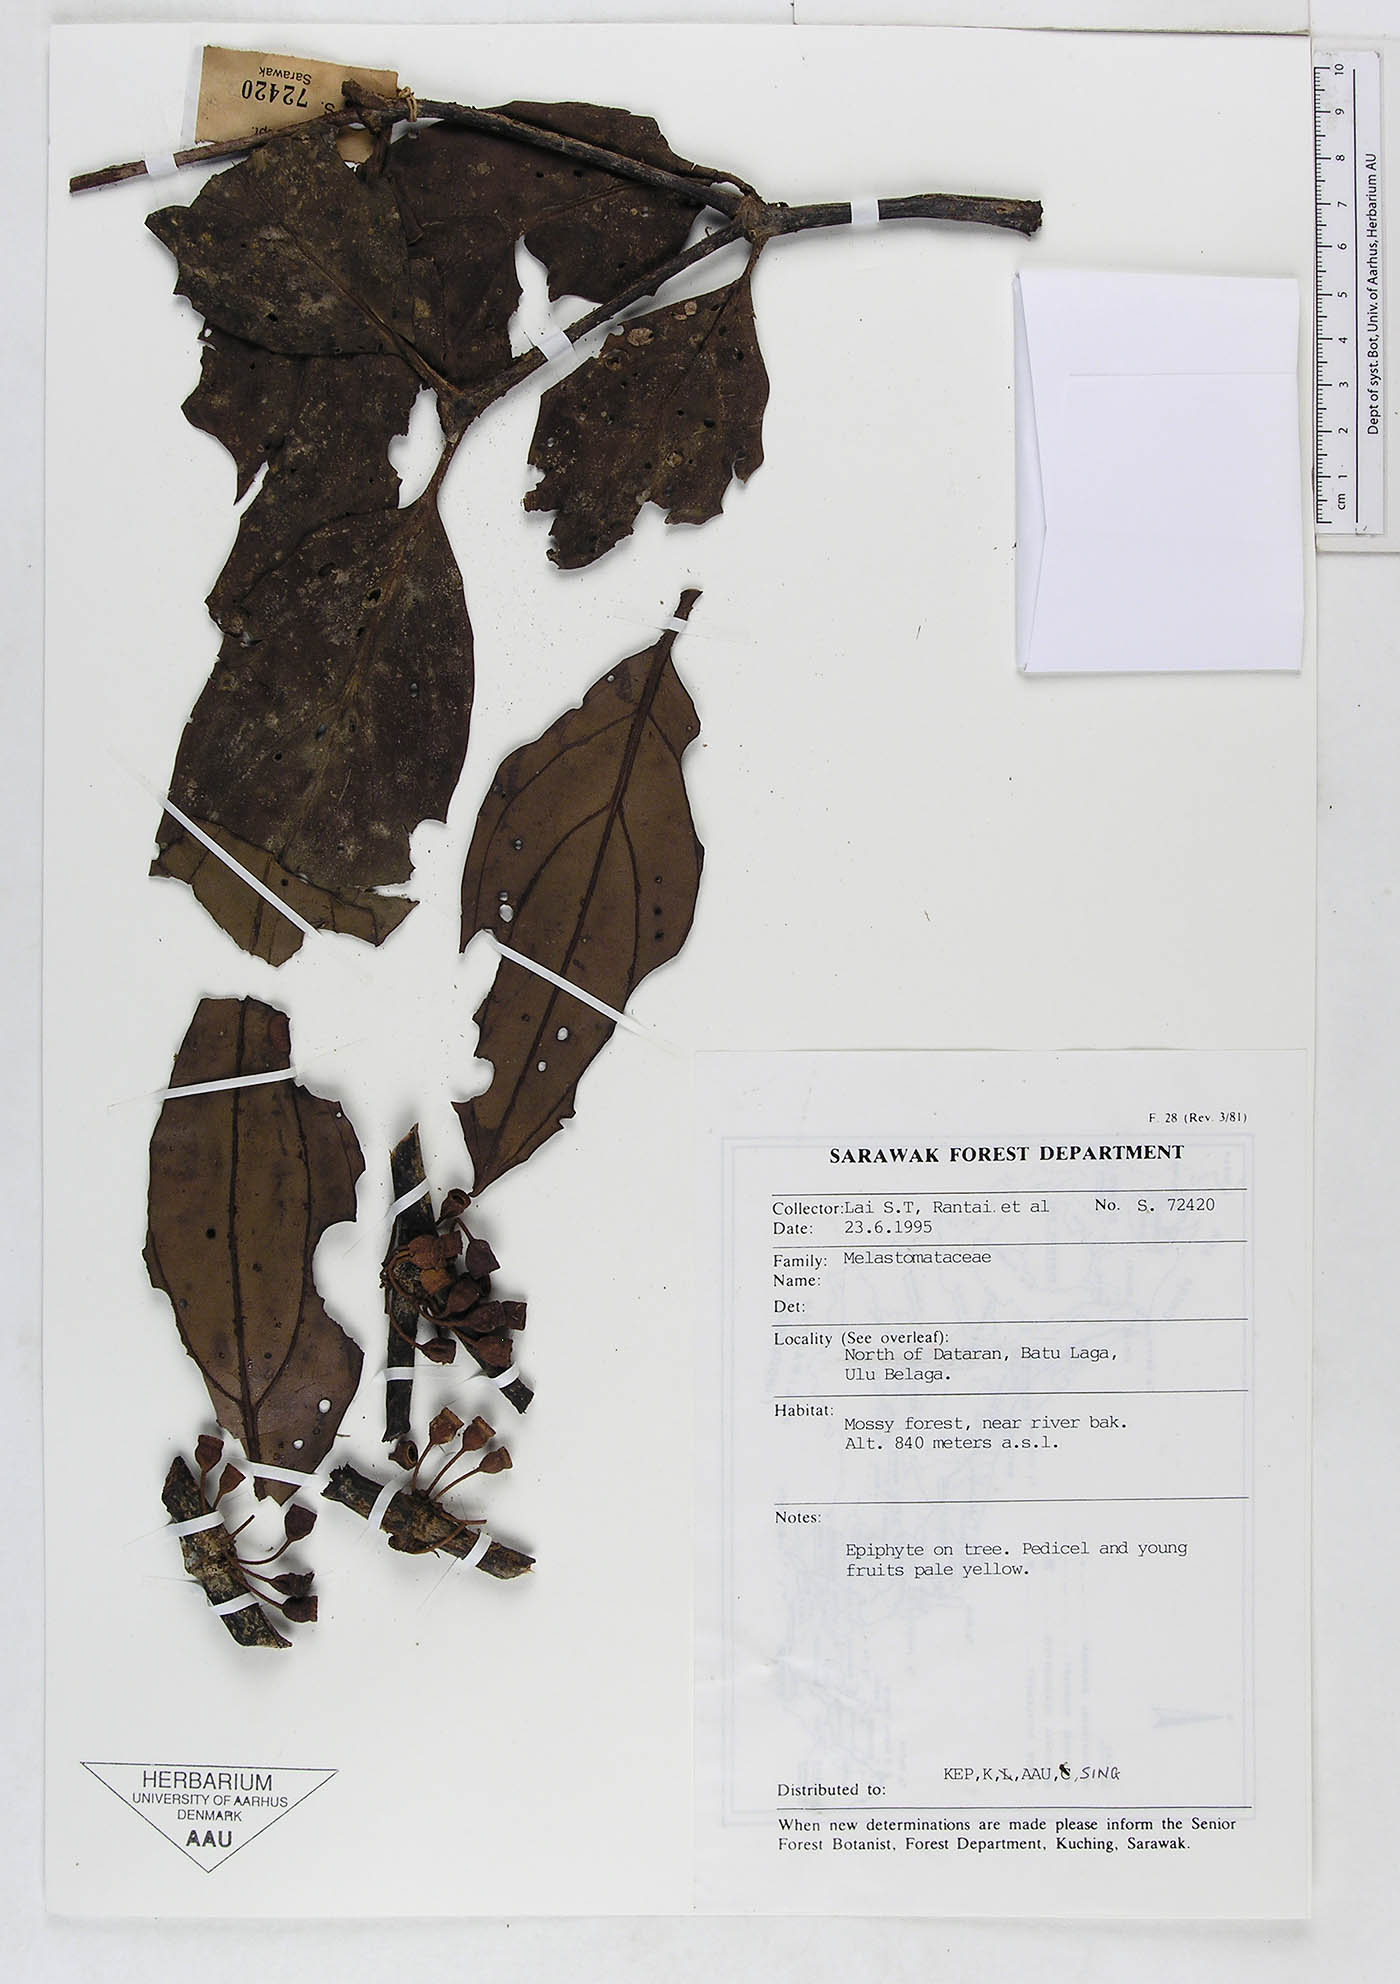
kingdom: Plantae
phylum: Tracheophyta
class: Magnoliopsida
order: Myrtales
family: Melastomataceae
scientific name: Melastomataceae
